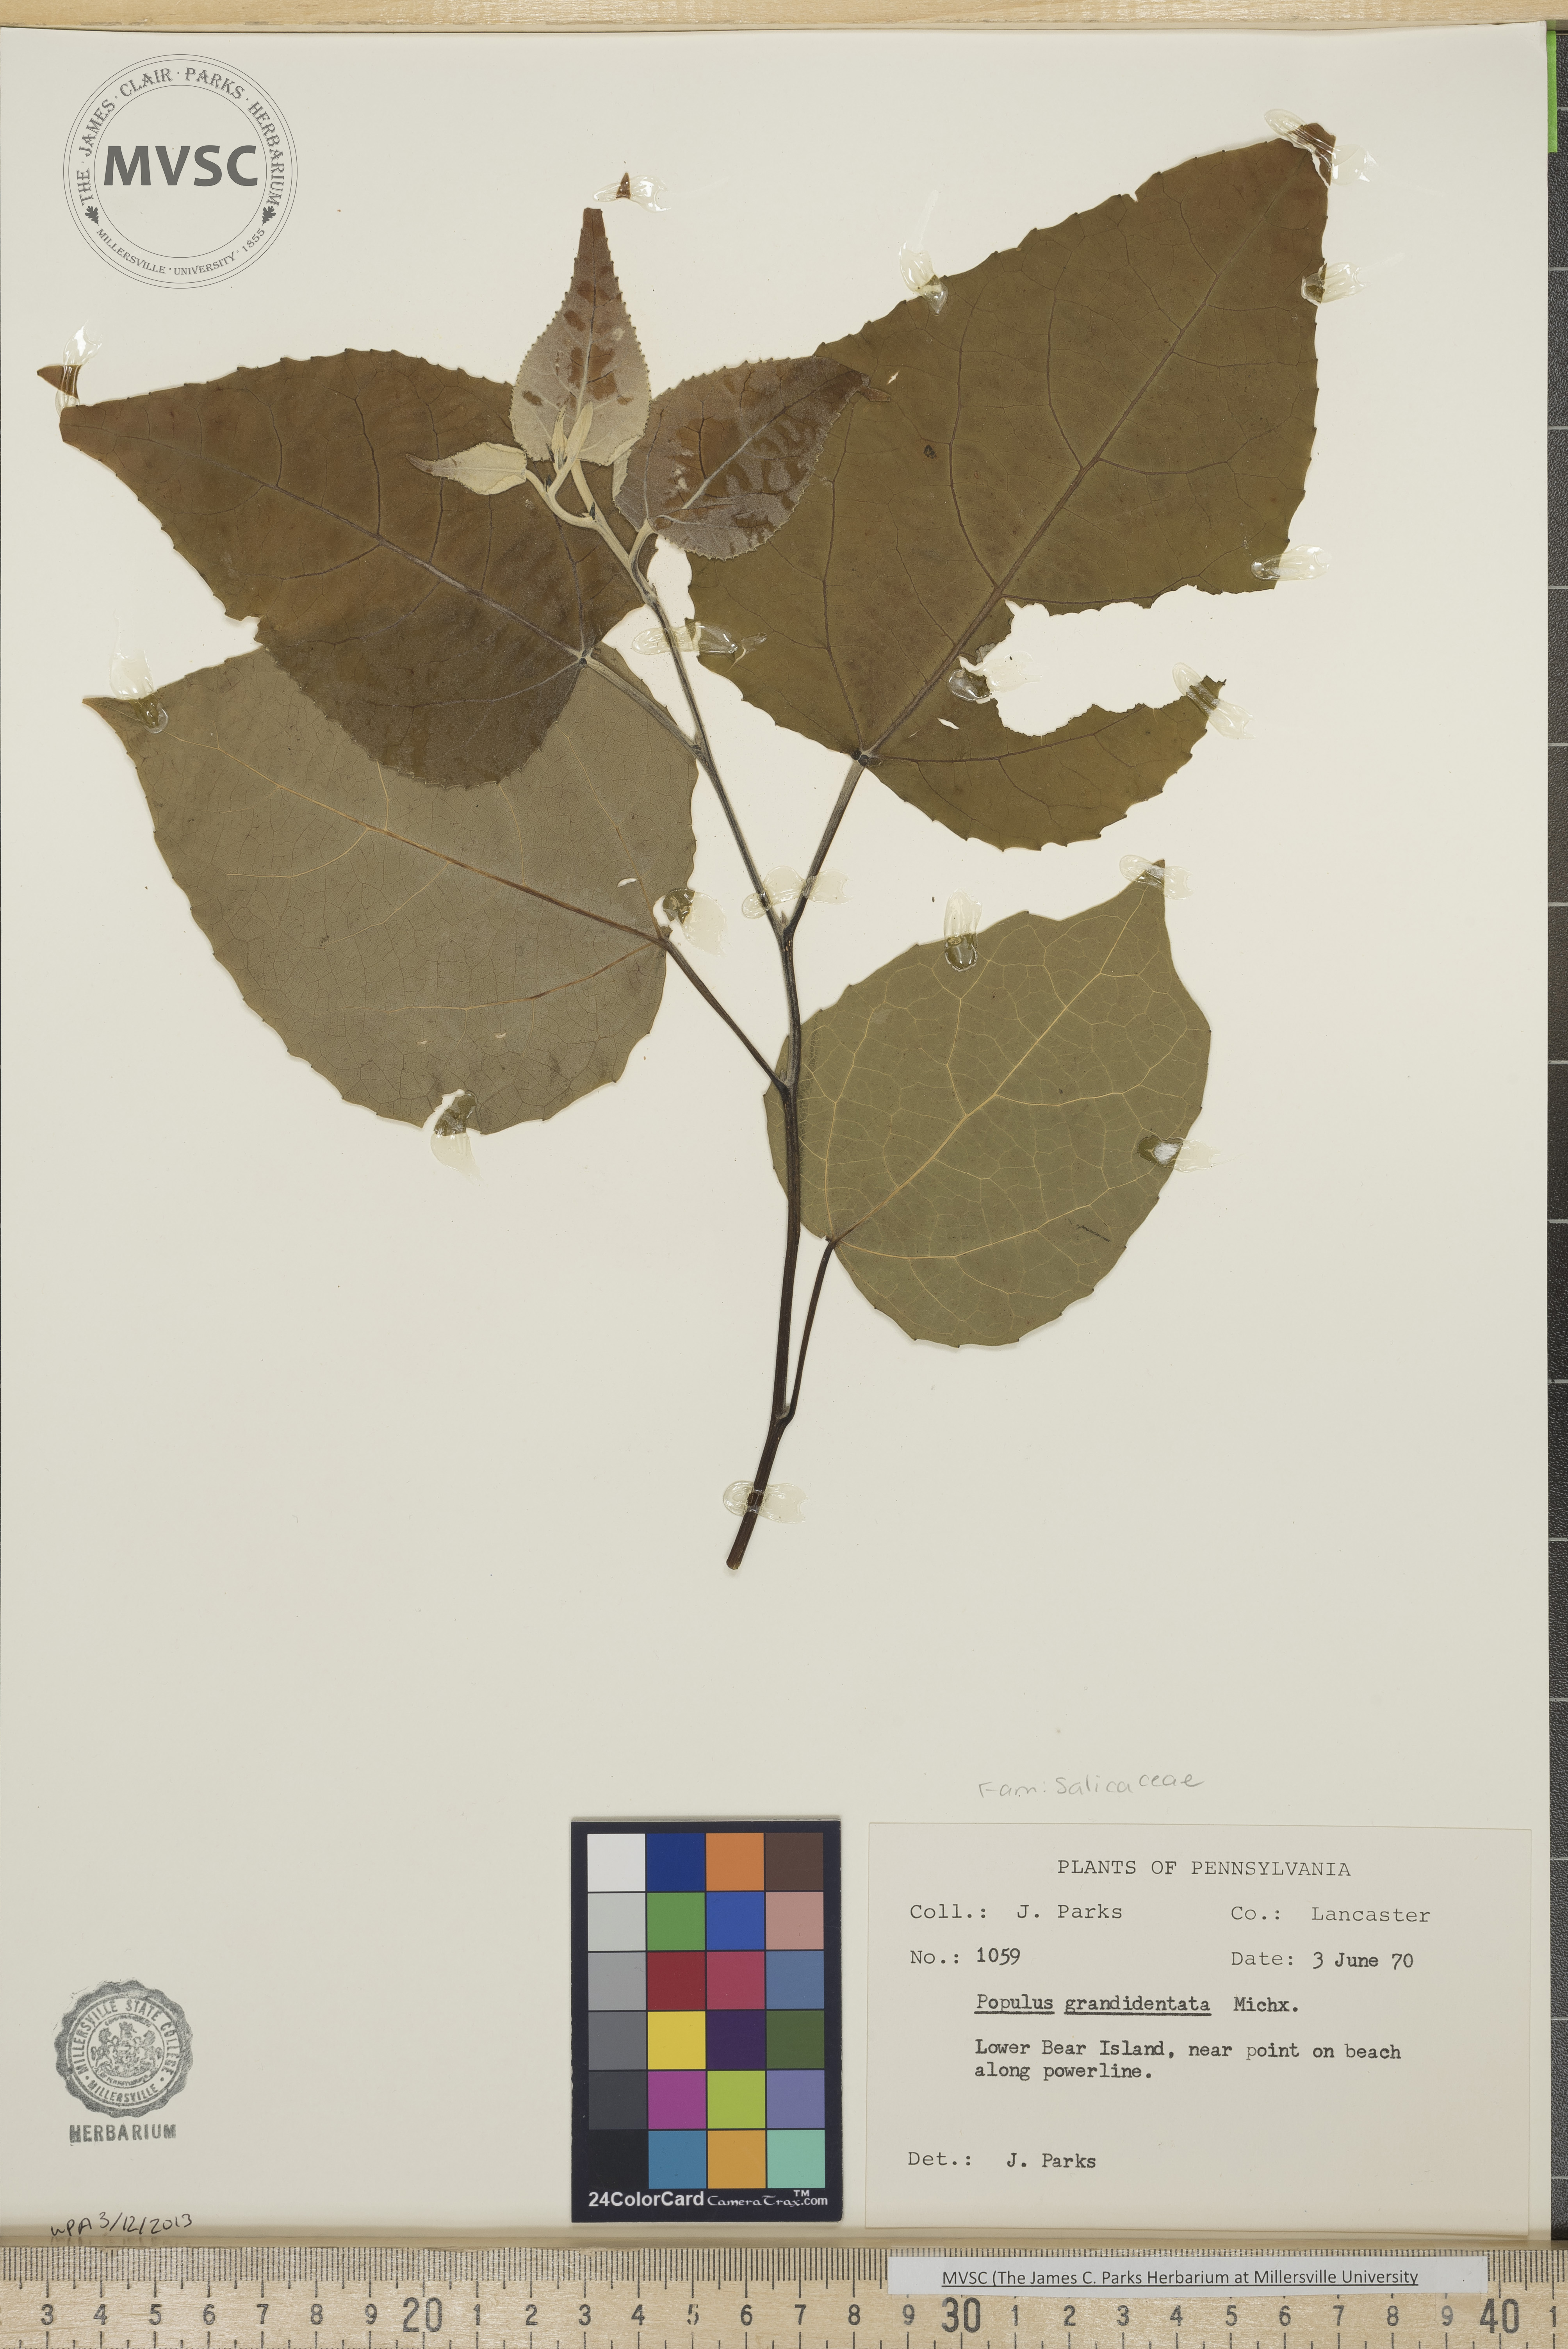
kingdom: Plantae
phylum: Tracheophyta
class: Magnoliopsida
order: Malpighiales
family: Salicaceae
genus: Populus
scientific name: Populus grandidentata
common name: Bigtooth aspen
